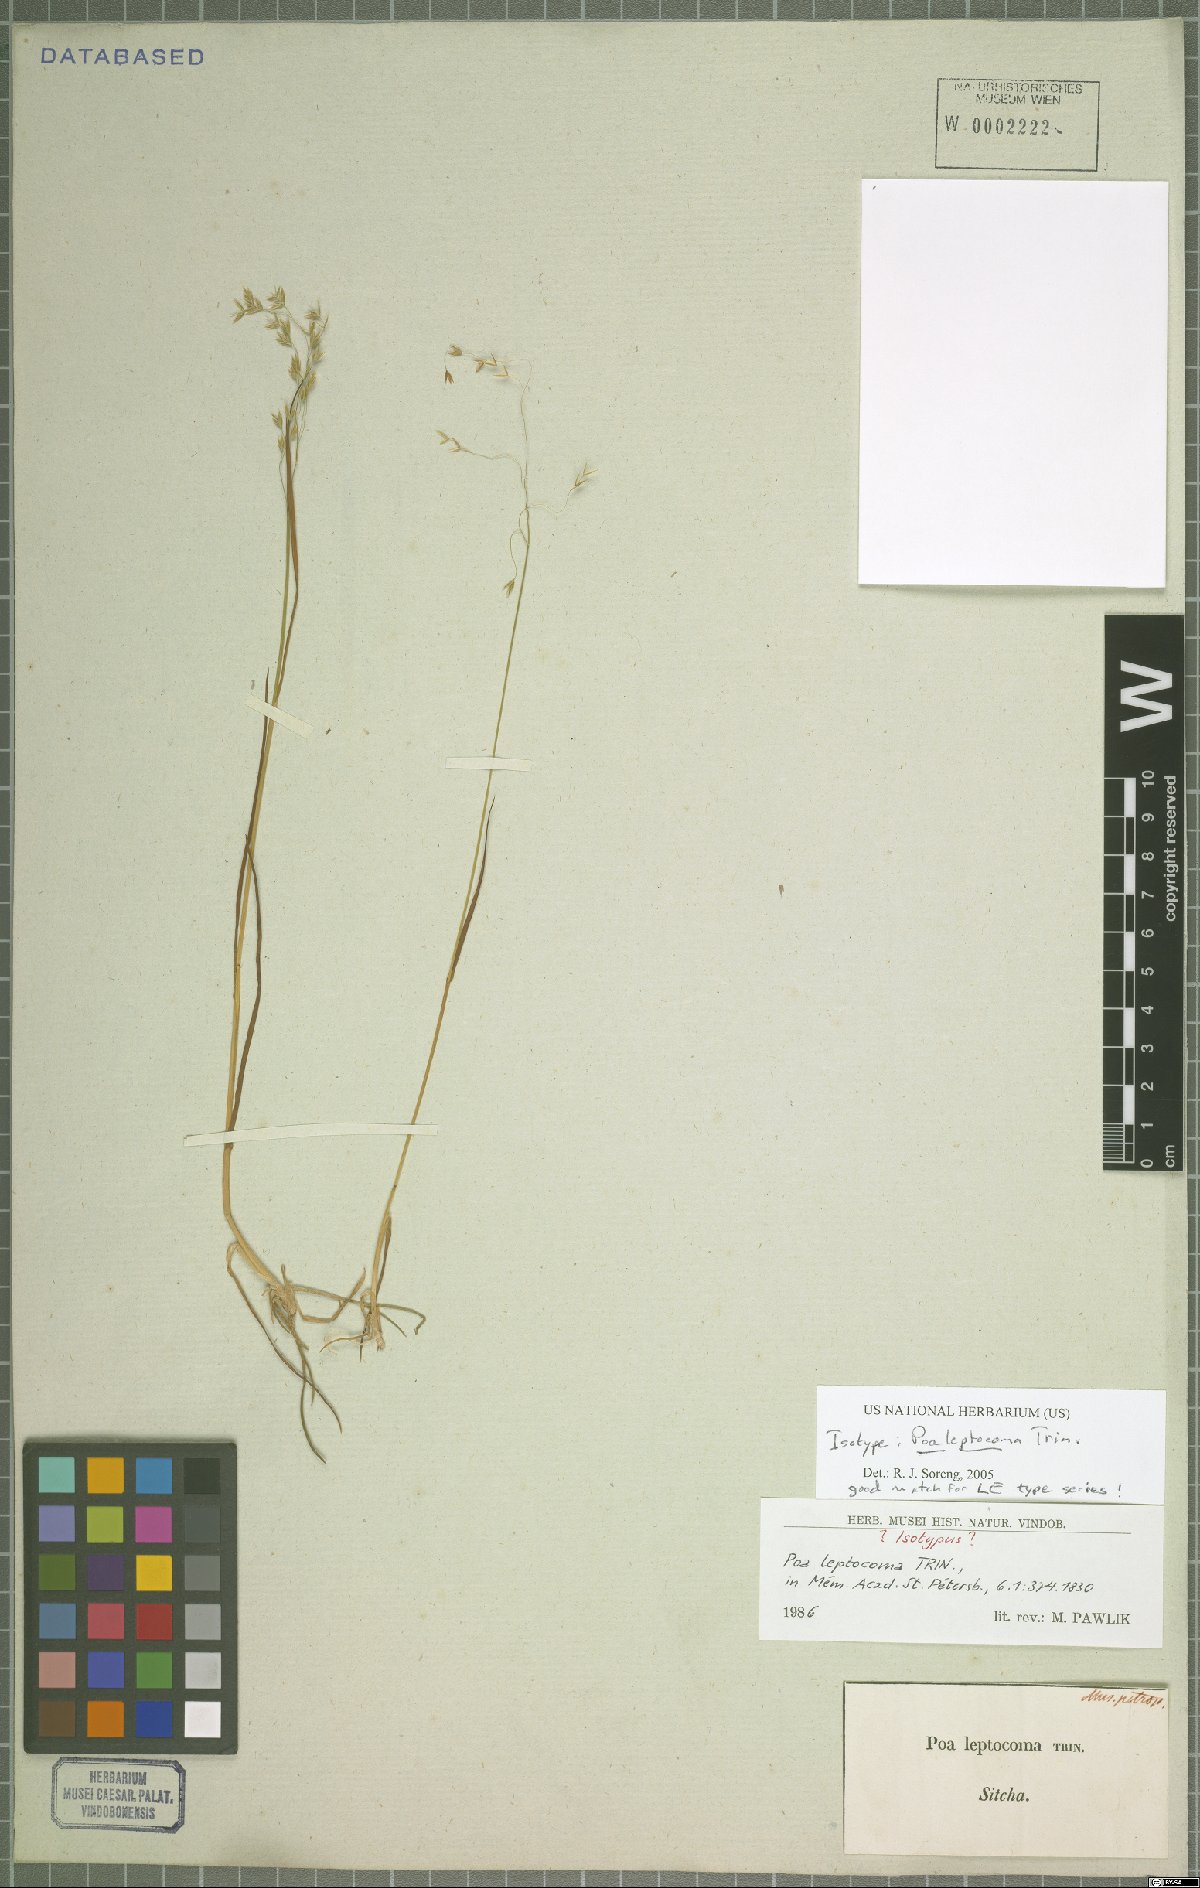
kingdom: Plantae
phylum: Tracheophyta
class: Liliopsida
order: Poales
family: Poaceae
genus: Poa
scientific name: Poa leptocoma
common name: Bog bluegrass
